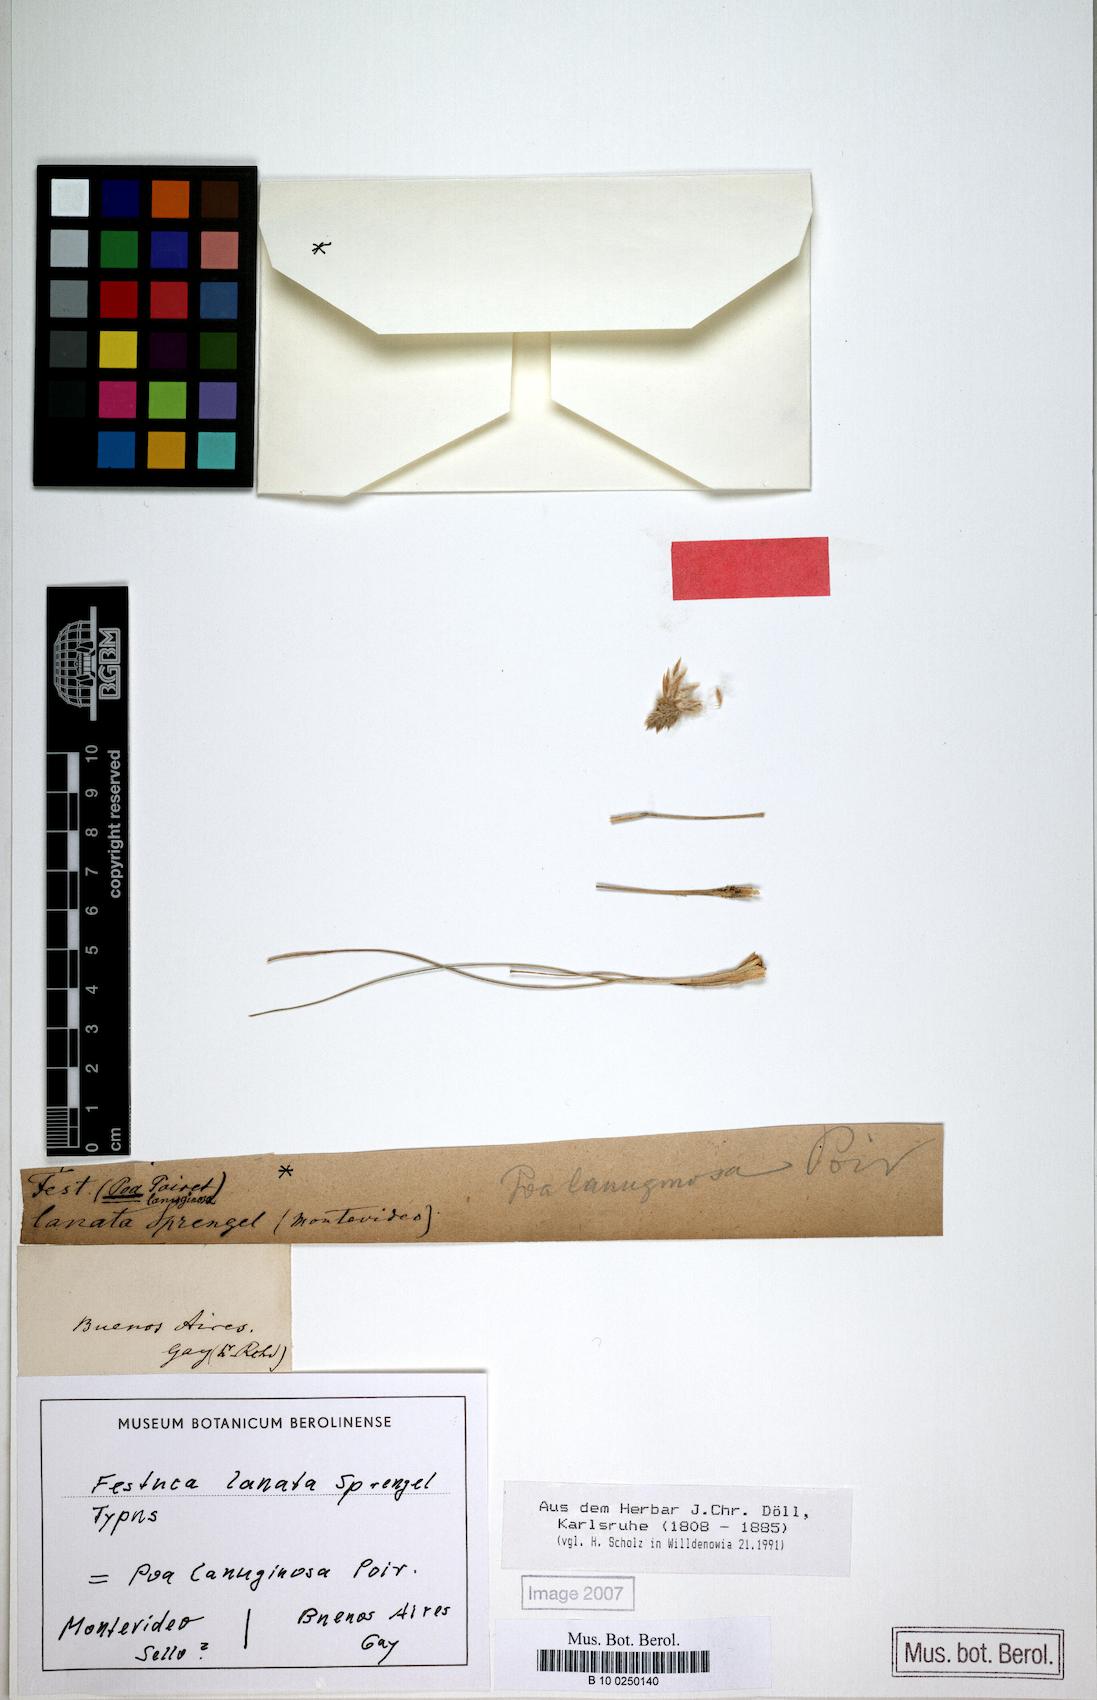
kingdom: Plantae
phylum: Tracheophyta
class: Liliopsida
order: Poales
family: Poaceae
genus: Poa
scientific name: Poa lanuginosa
